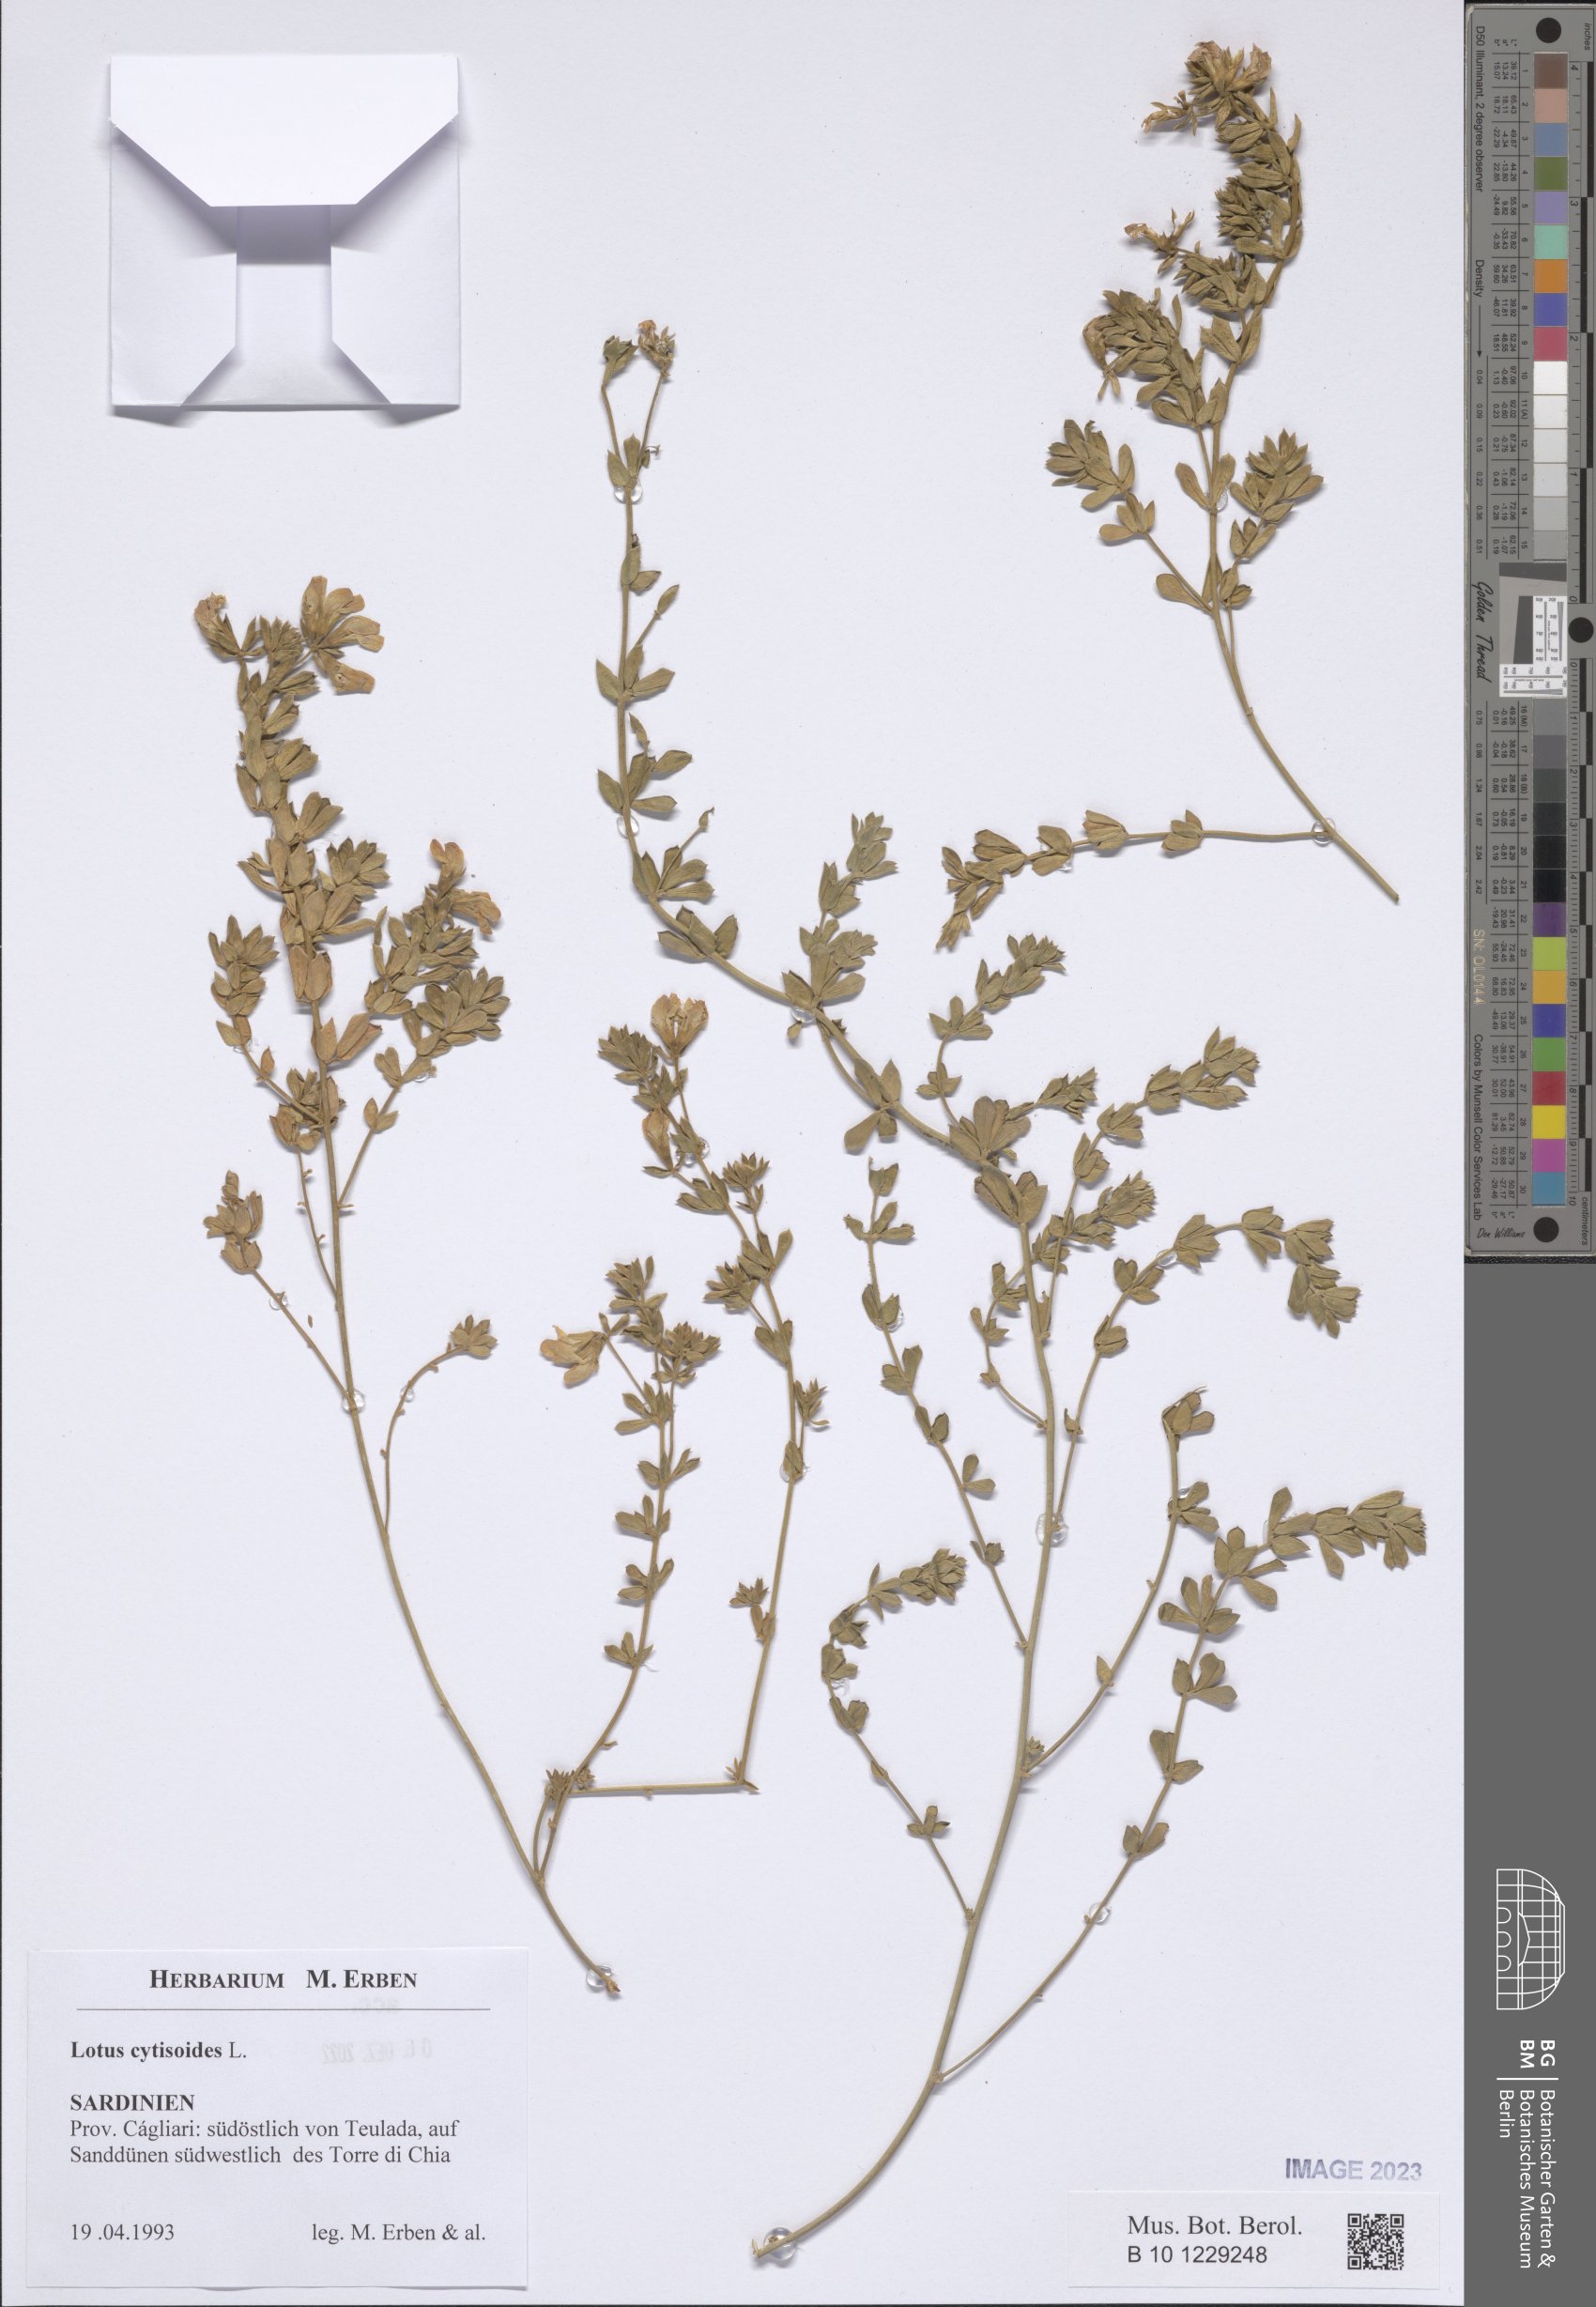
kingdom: Plantae
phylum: Tracheophyta
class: Magnoliopsida
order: Fabales
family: Fabaceae
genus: Lotus
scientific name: Lotus cytisoides
